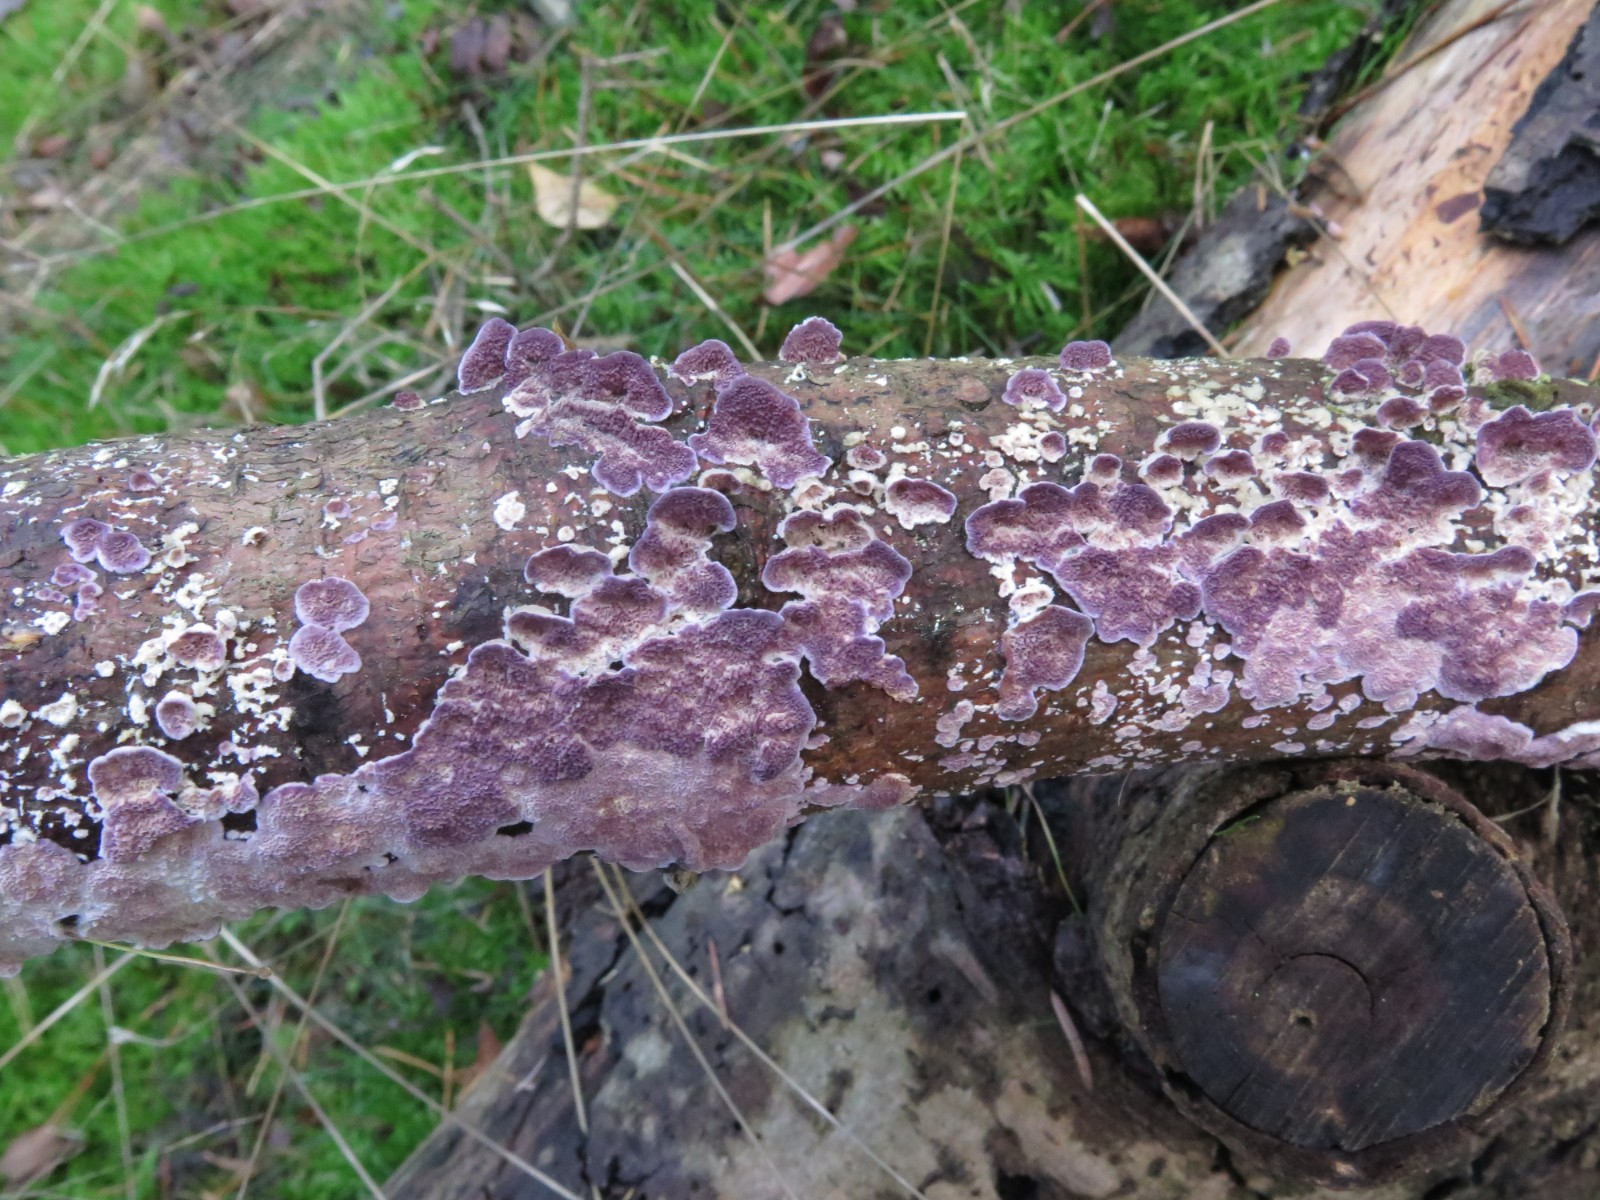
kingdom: Fungi
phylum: Basidiomycota
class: Agaricomycetes
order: Hymenochaetales
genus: Trichaptum
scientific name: Trichaptum fuscoviolaceum
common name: tandet violporesvamp
